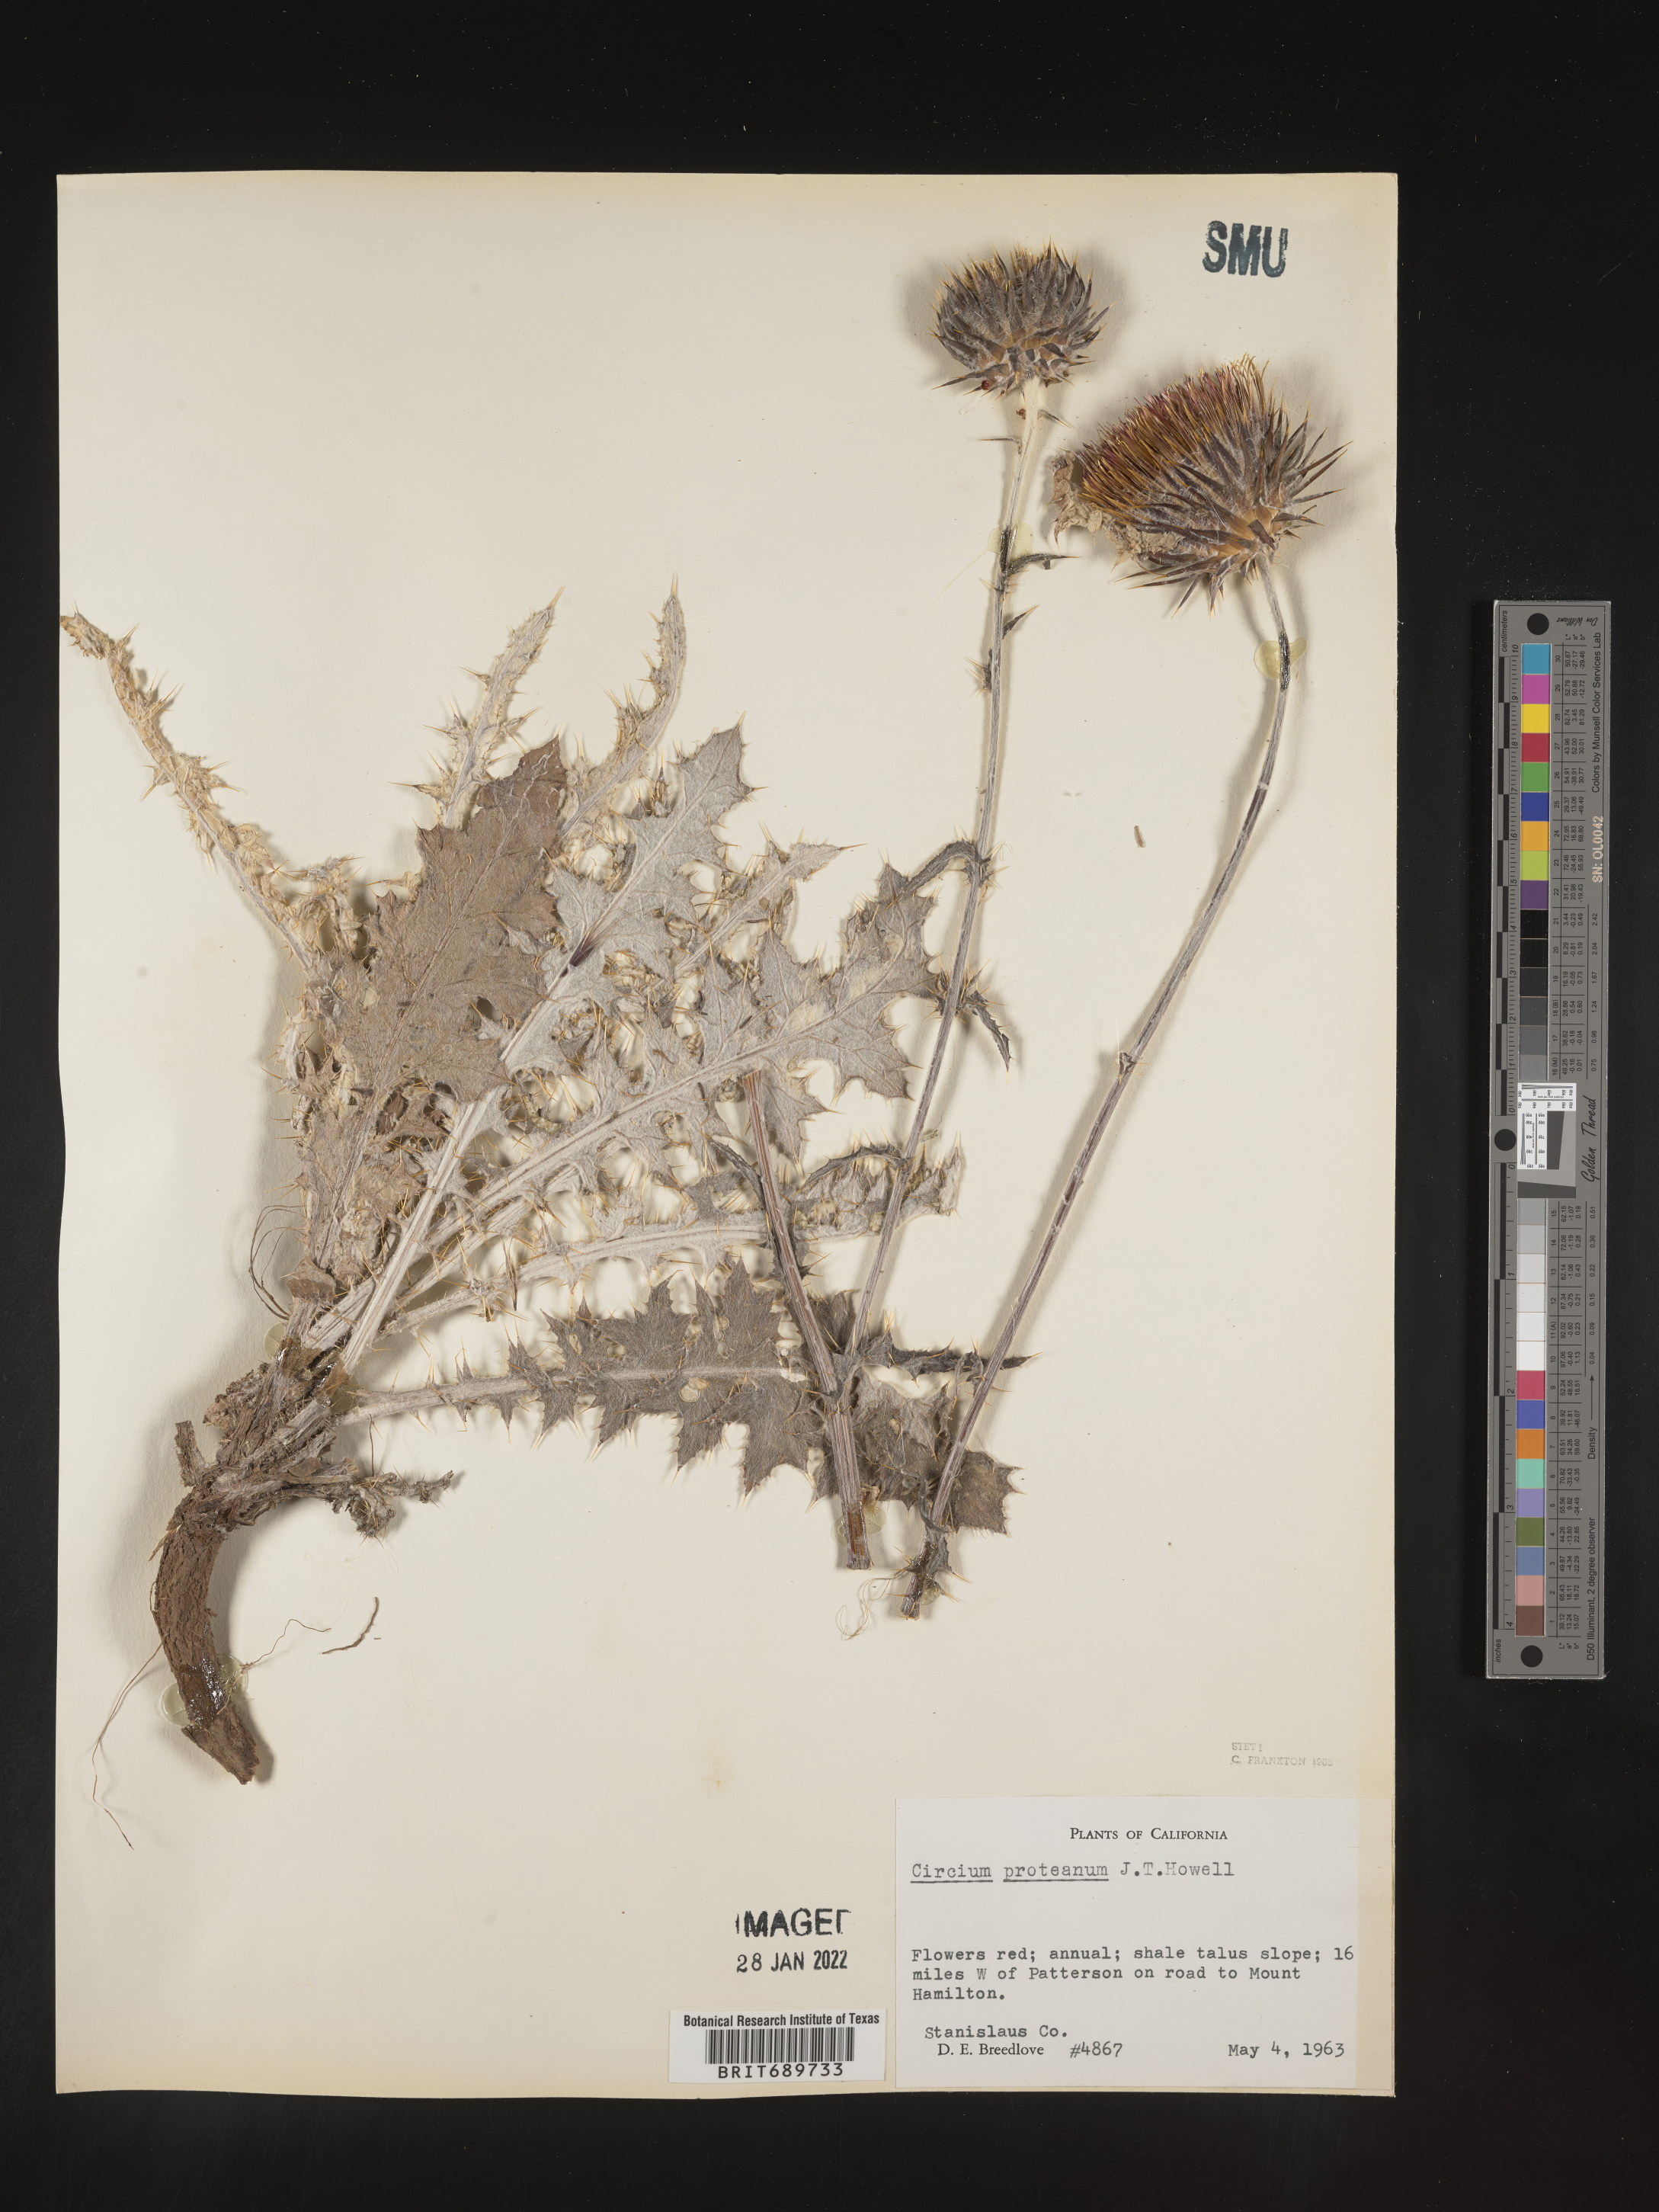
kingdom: Plantae
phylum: Tracheophyta
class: Magnoliopsida
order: Asterales
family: Asteraceae
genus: Cirsium
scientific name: Cirsium occidentale
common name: Western thistle
